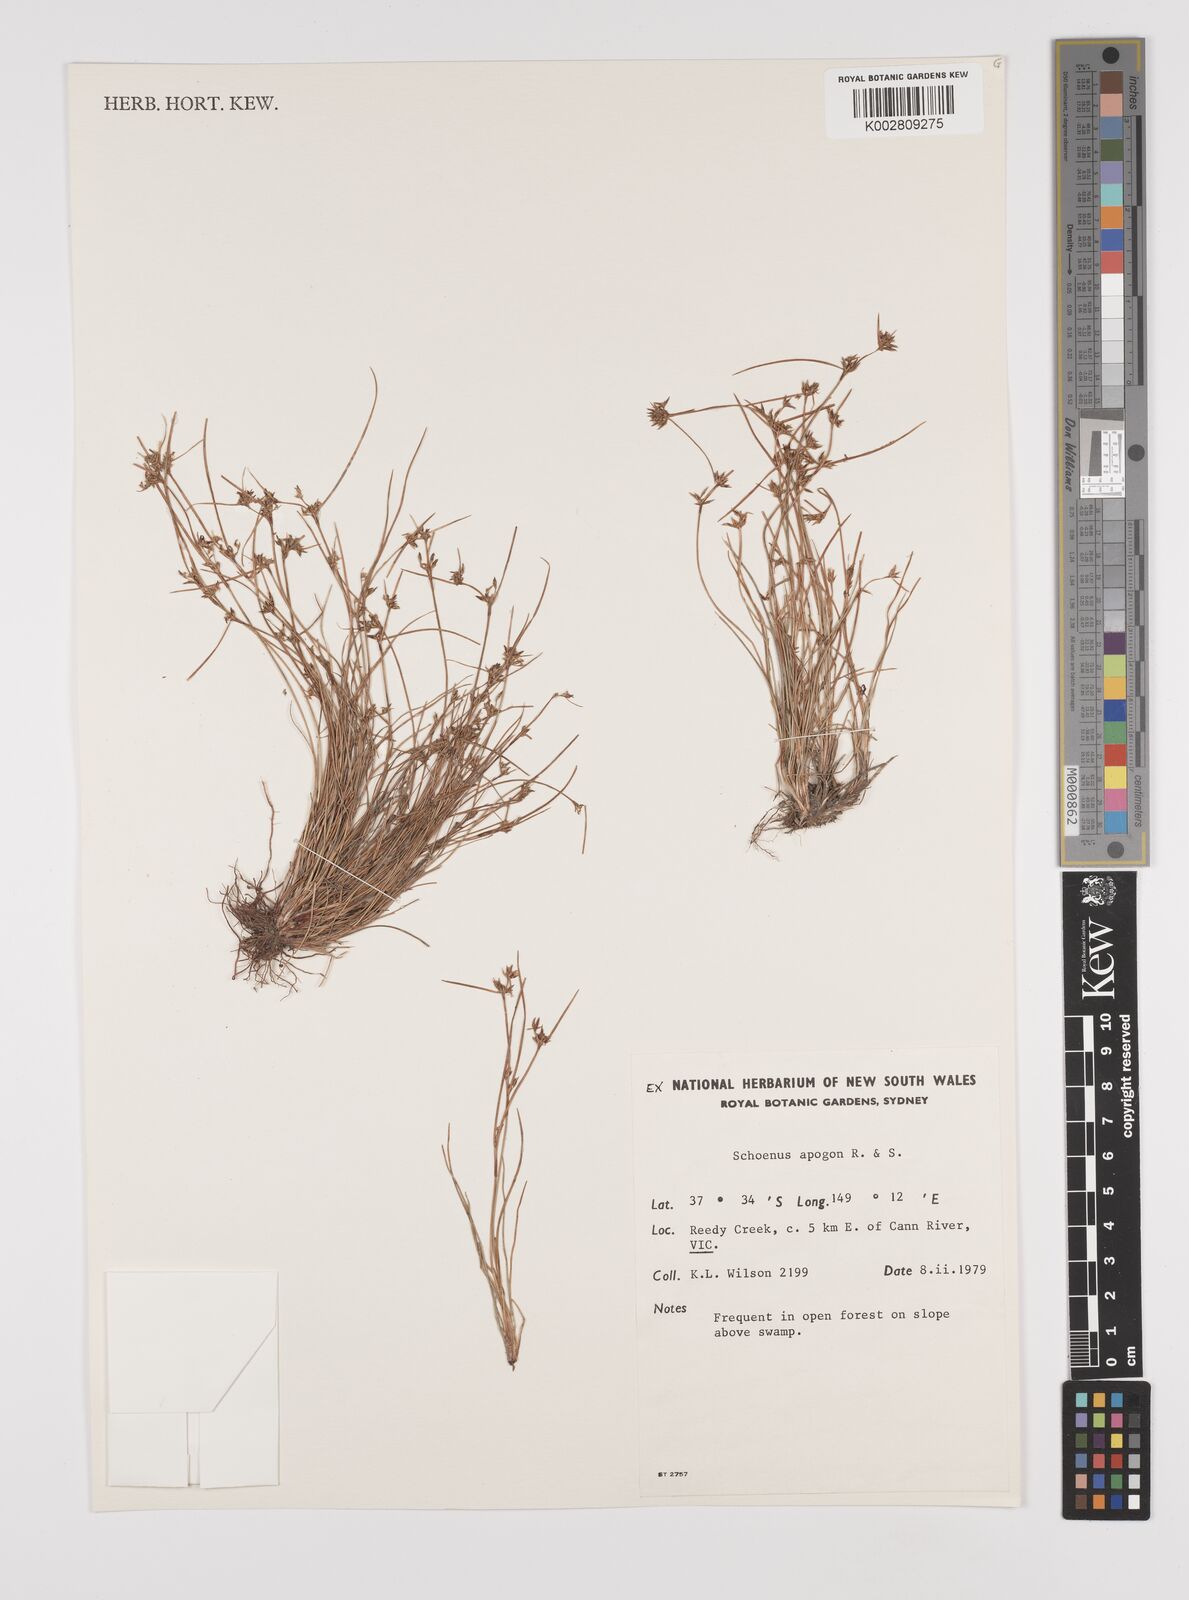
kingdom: Plantae
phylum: Tracheophyta
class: Liliopsida
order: Poales
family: Cyperaceae
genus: Schoenus
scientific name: Schoenus apogon
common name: Smooth bogrush
